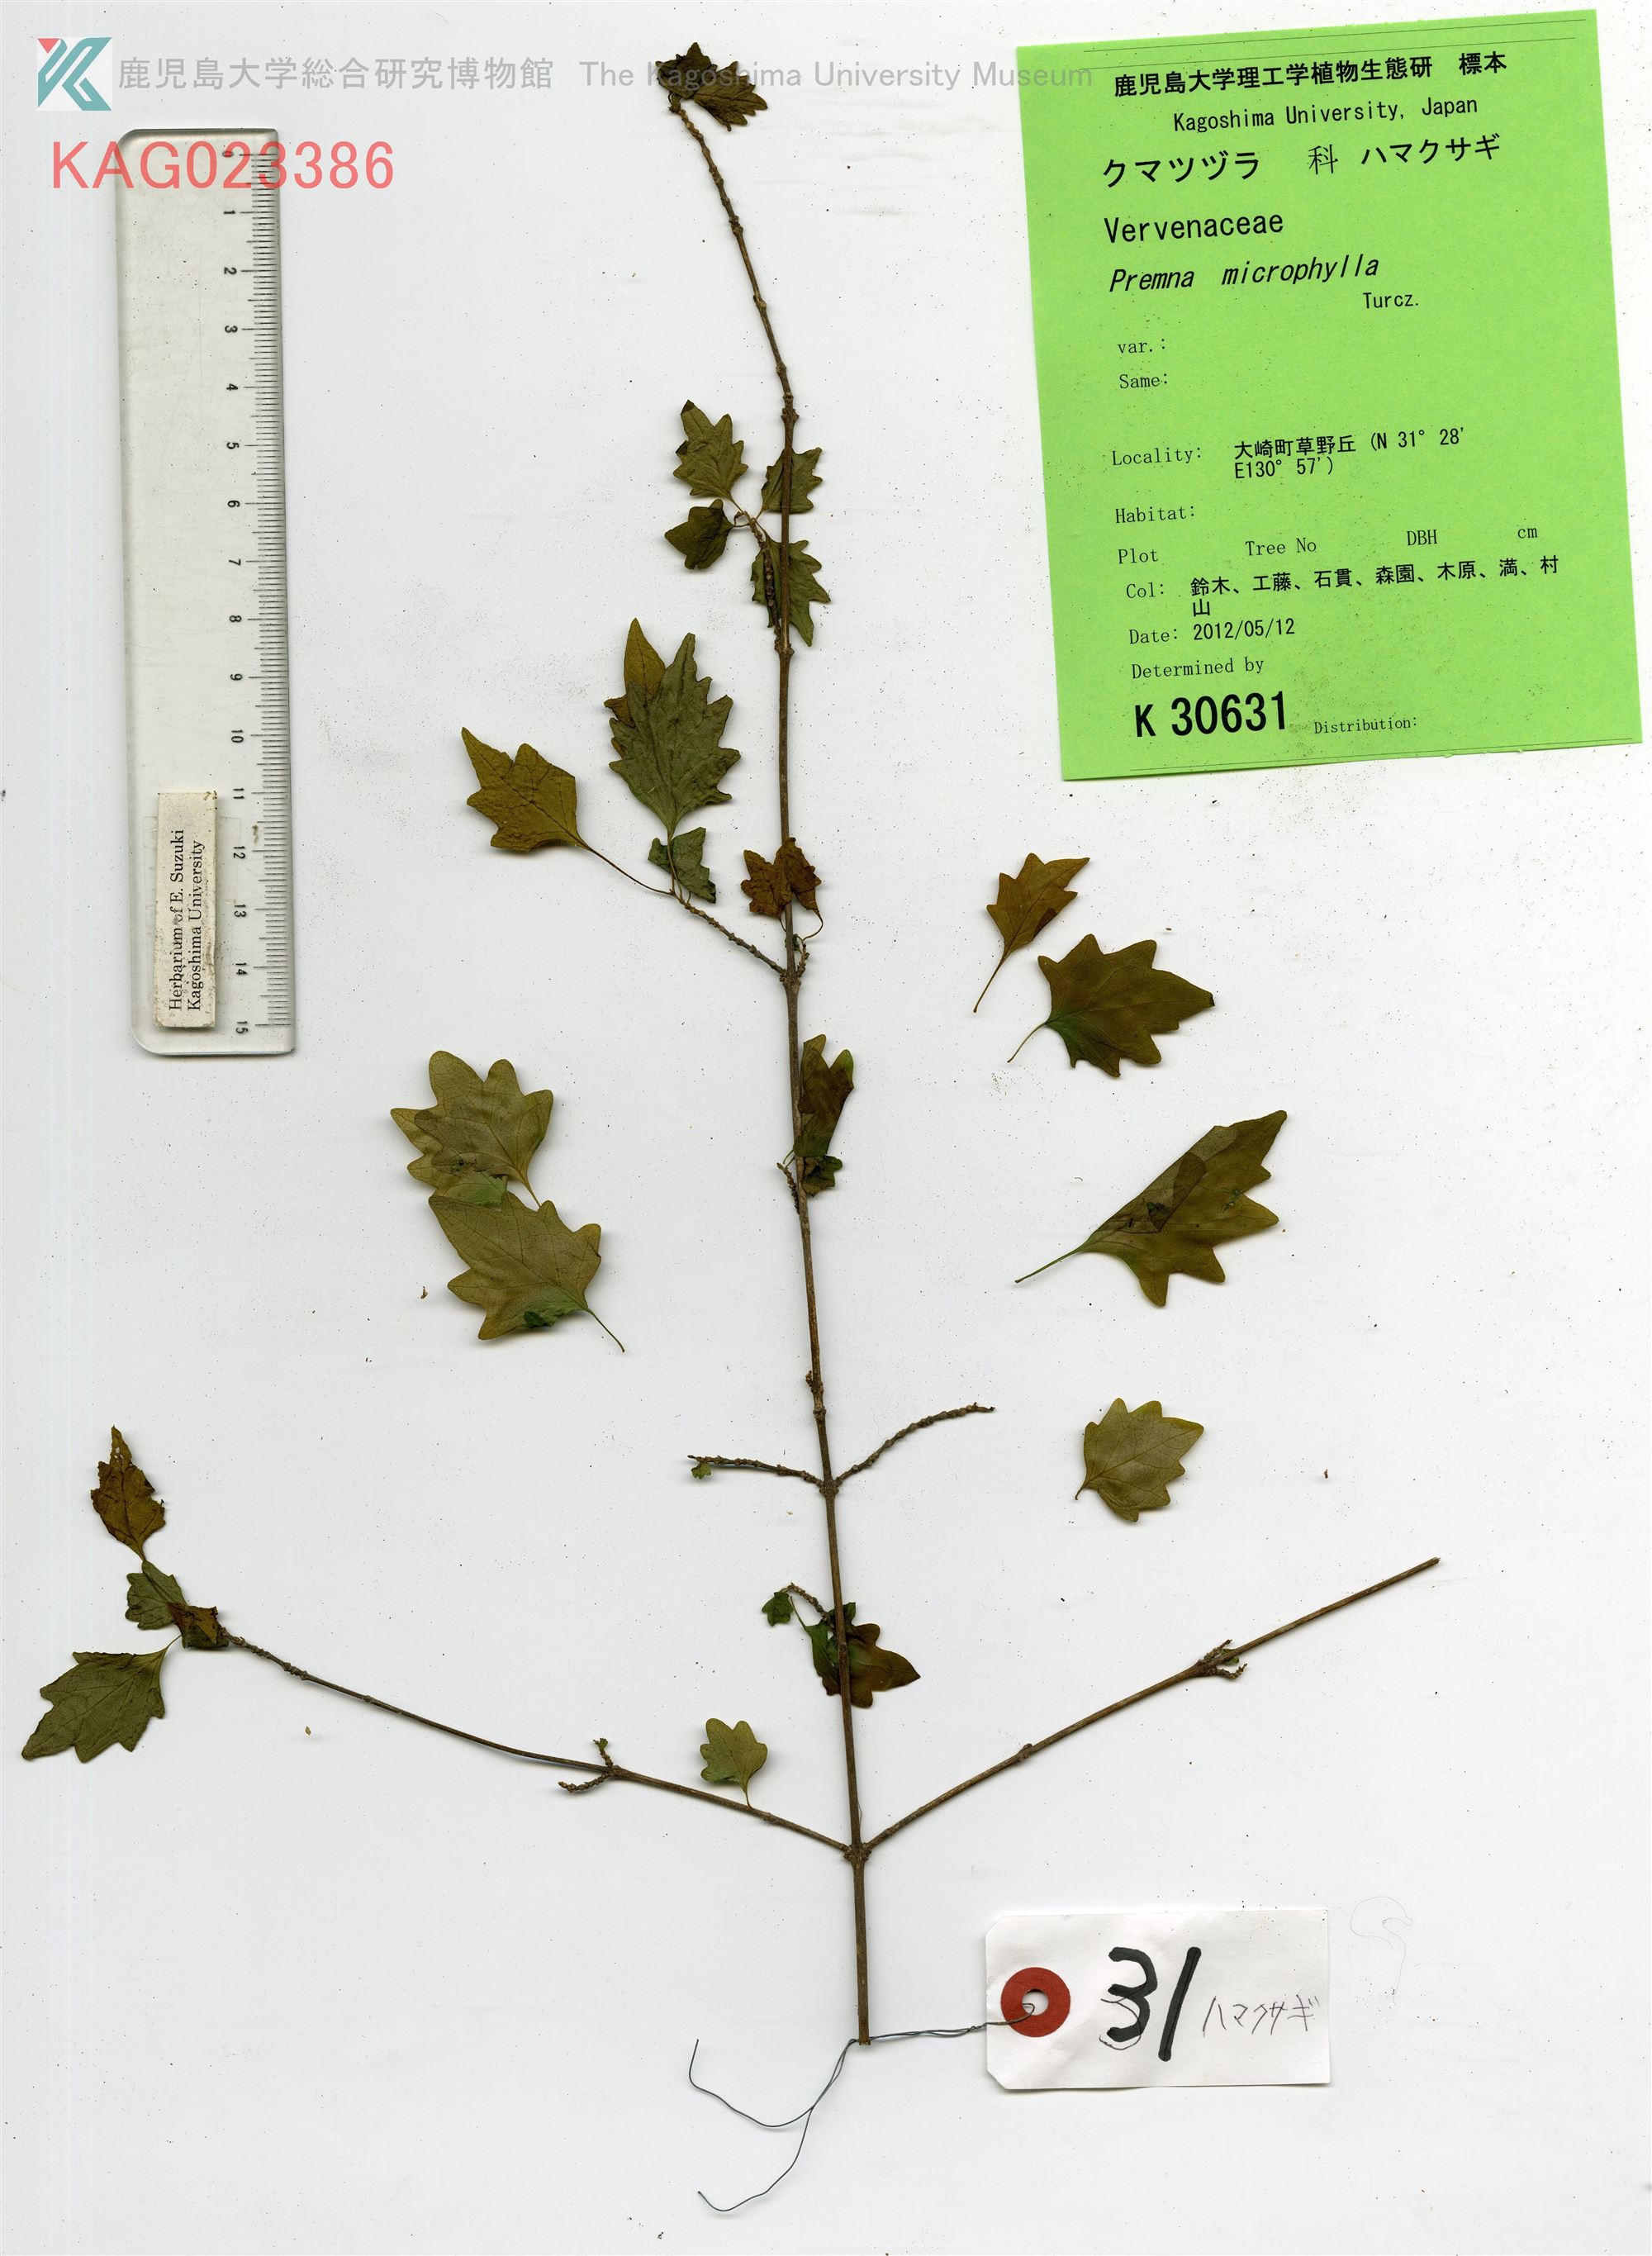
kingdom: Plantae
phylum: Tracheophyta
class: Magnoliopsida
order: Lamiales
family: Lamiaceae
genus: Premna
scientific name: Premna microphylla
